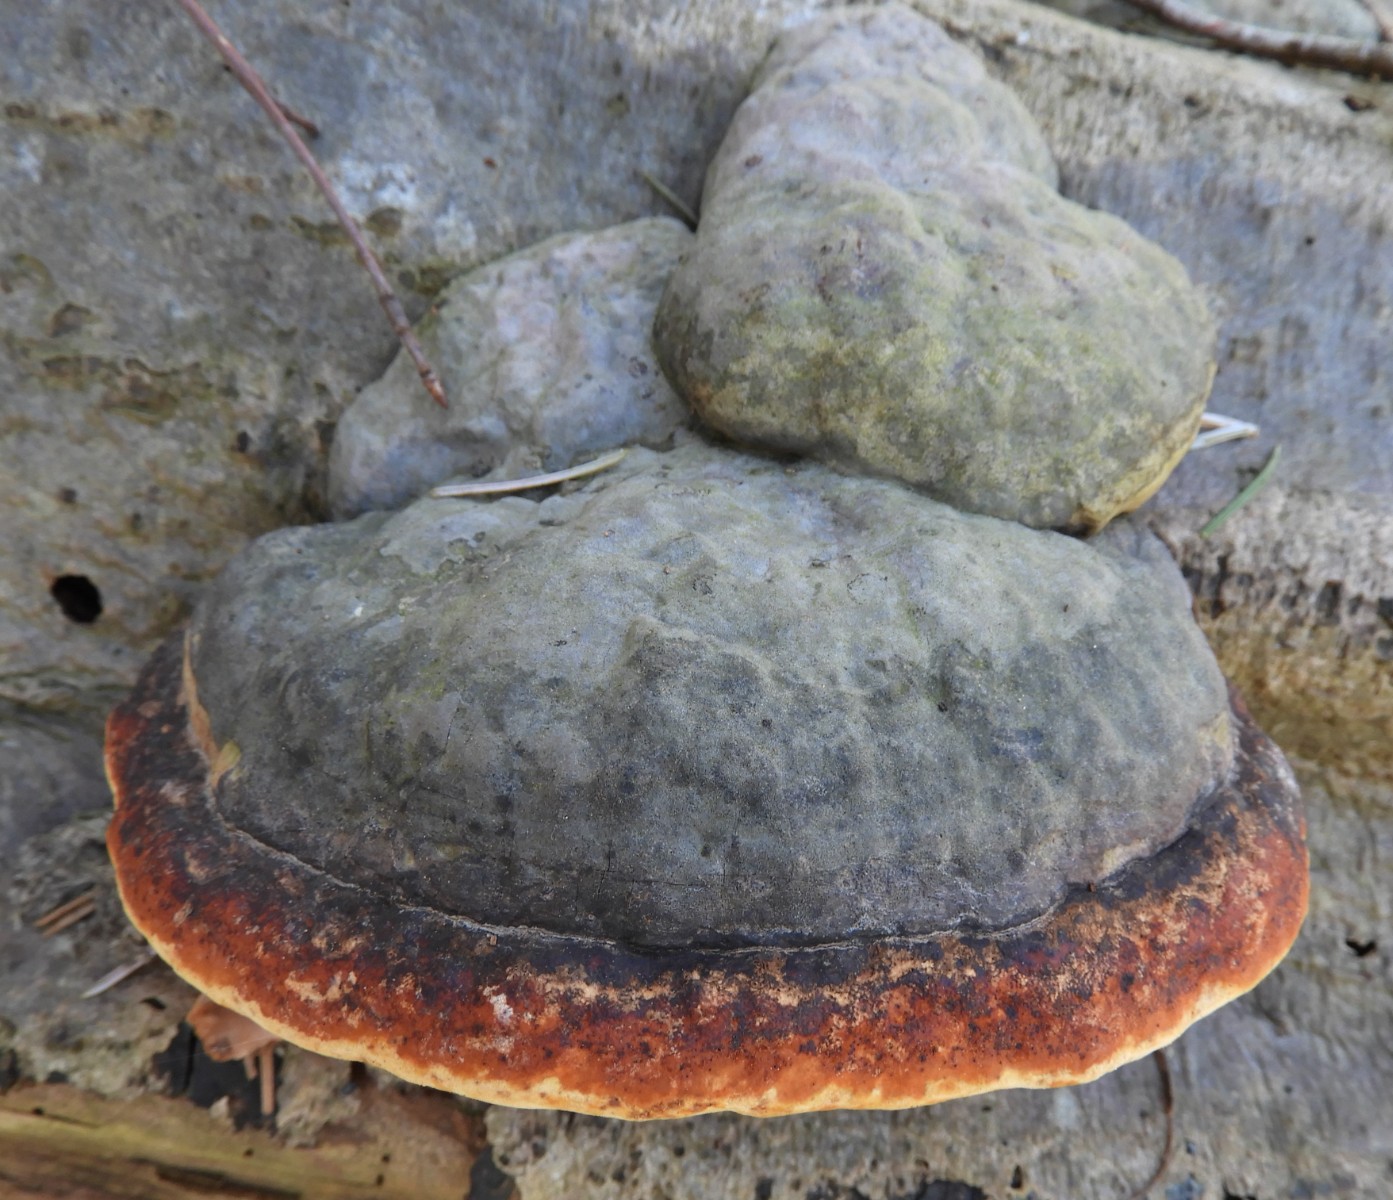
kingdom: Fungi
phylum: Basidiomycota
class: Agaricomycetes
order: Polyporales
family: Fomitopsidaceae
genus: Fomitopsis
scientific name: Fomitopsis pinicola
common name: randbæltet hovporesvamp
